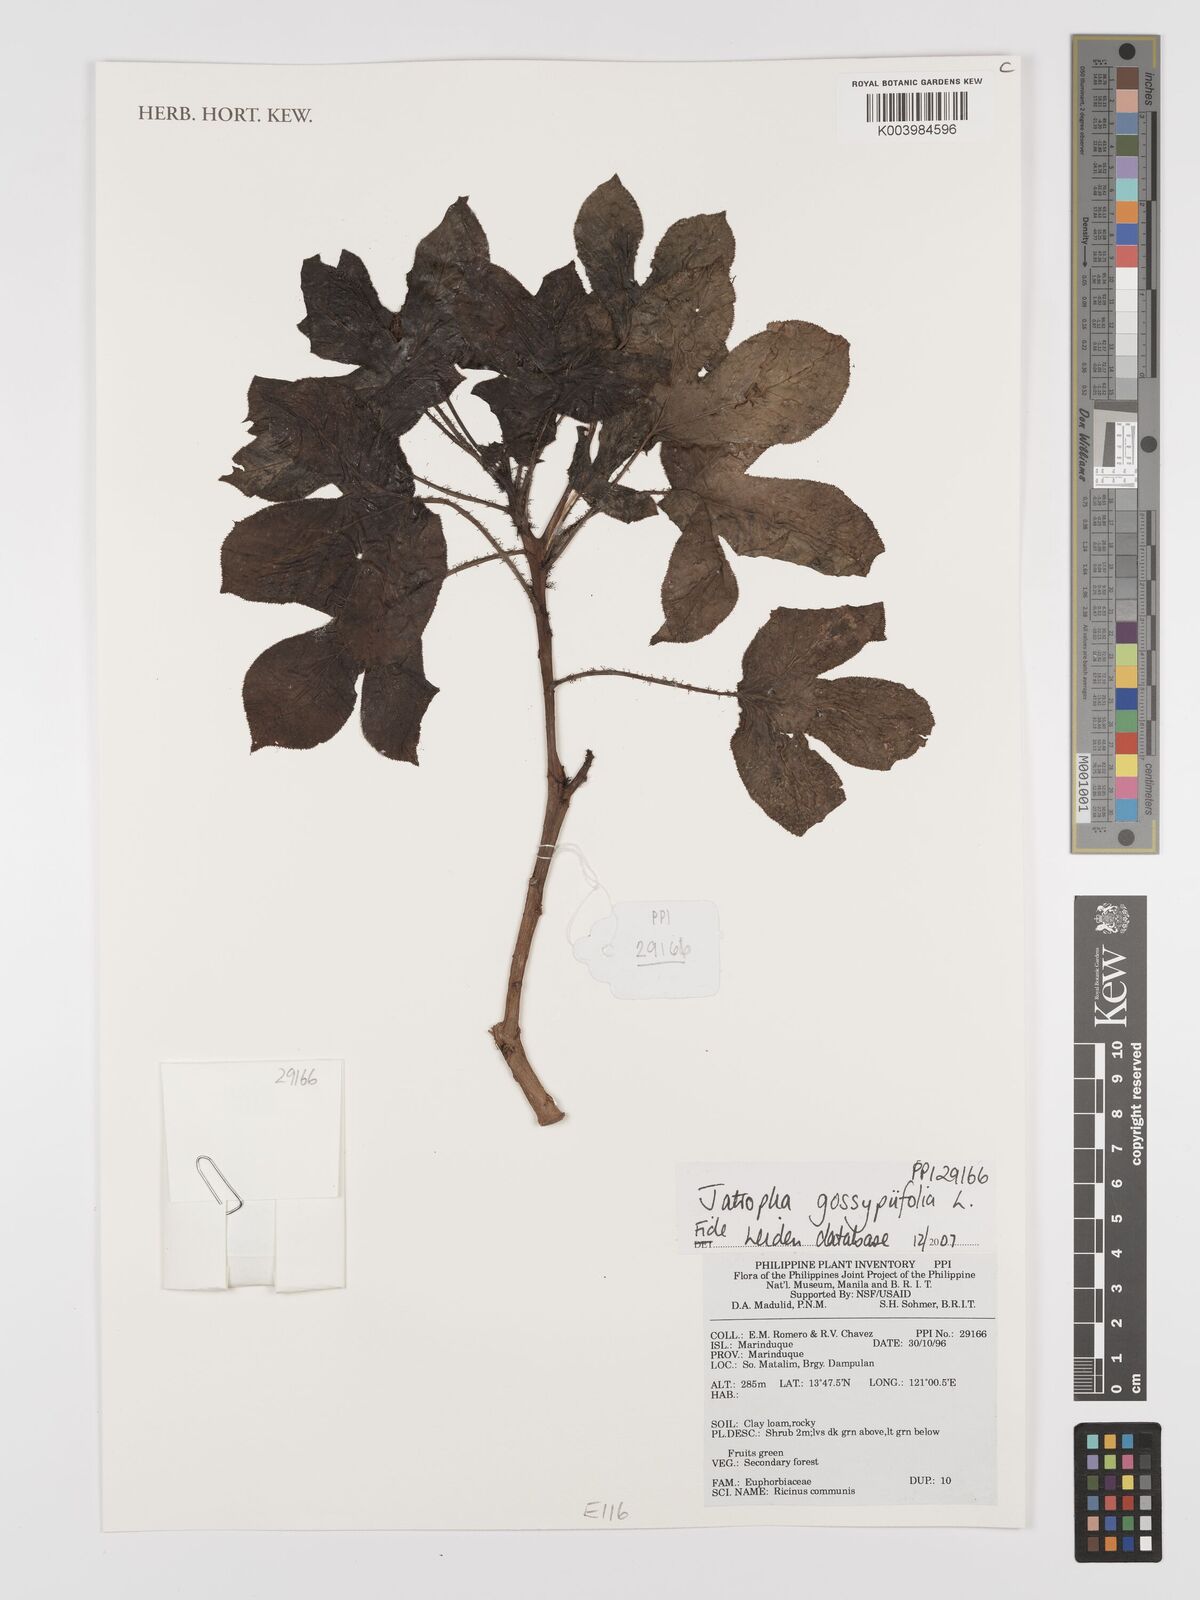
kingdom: Plantae
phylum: Tracheophyta
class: Magnoliopsida
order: Malpighiales
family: Euphorbiaceae
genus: Jatropha
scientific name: Jatropha gossypiifolia
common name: Bellyache bush
